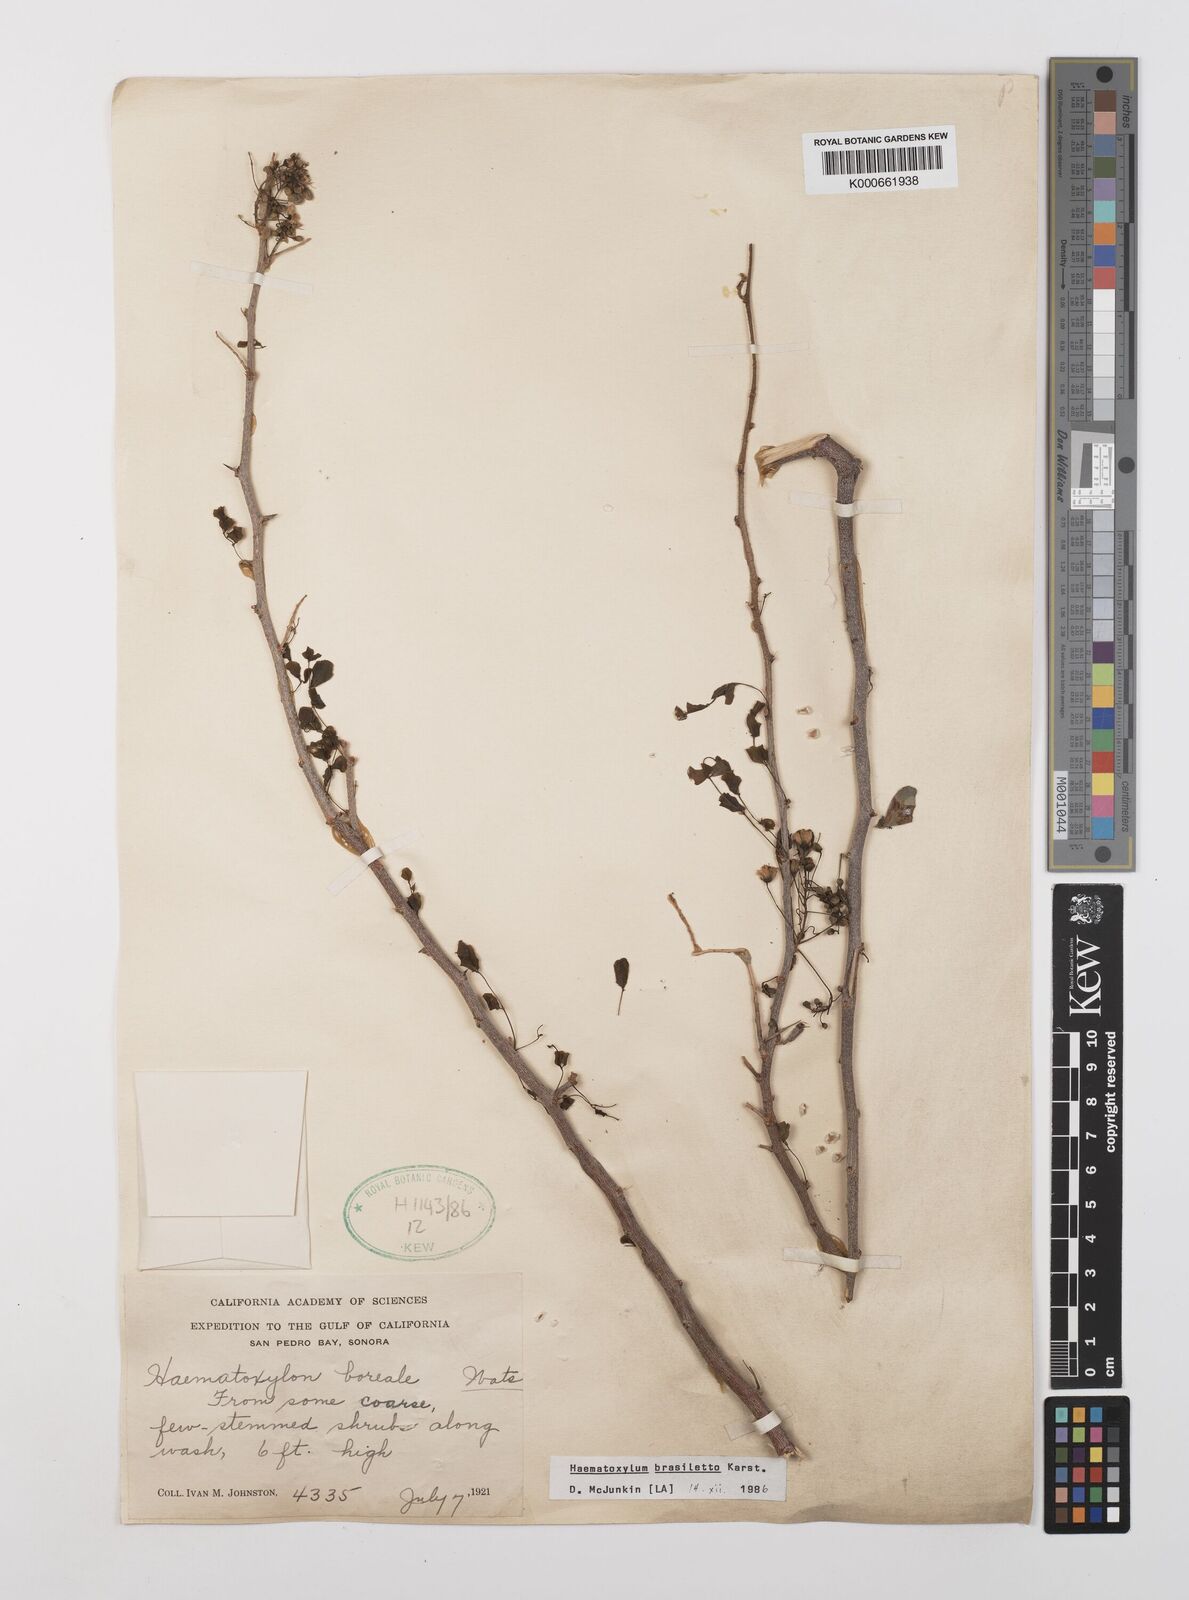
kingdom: Plantae
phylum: Tracheophyta
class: Magnoliopsida
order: Fabales
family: Fabaceae
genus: Haematoxylum
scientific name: Haematoxylum brasiletto
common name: Peachwood
